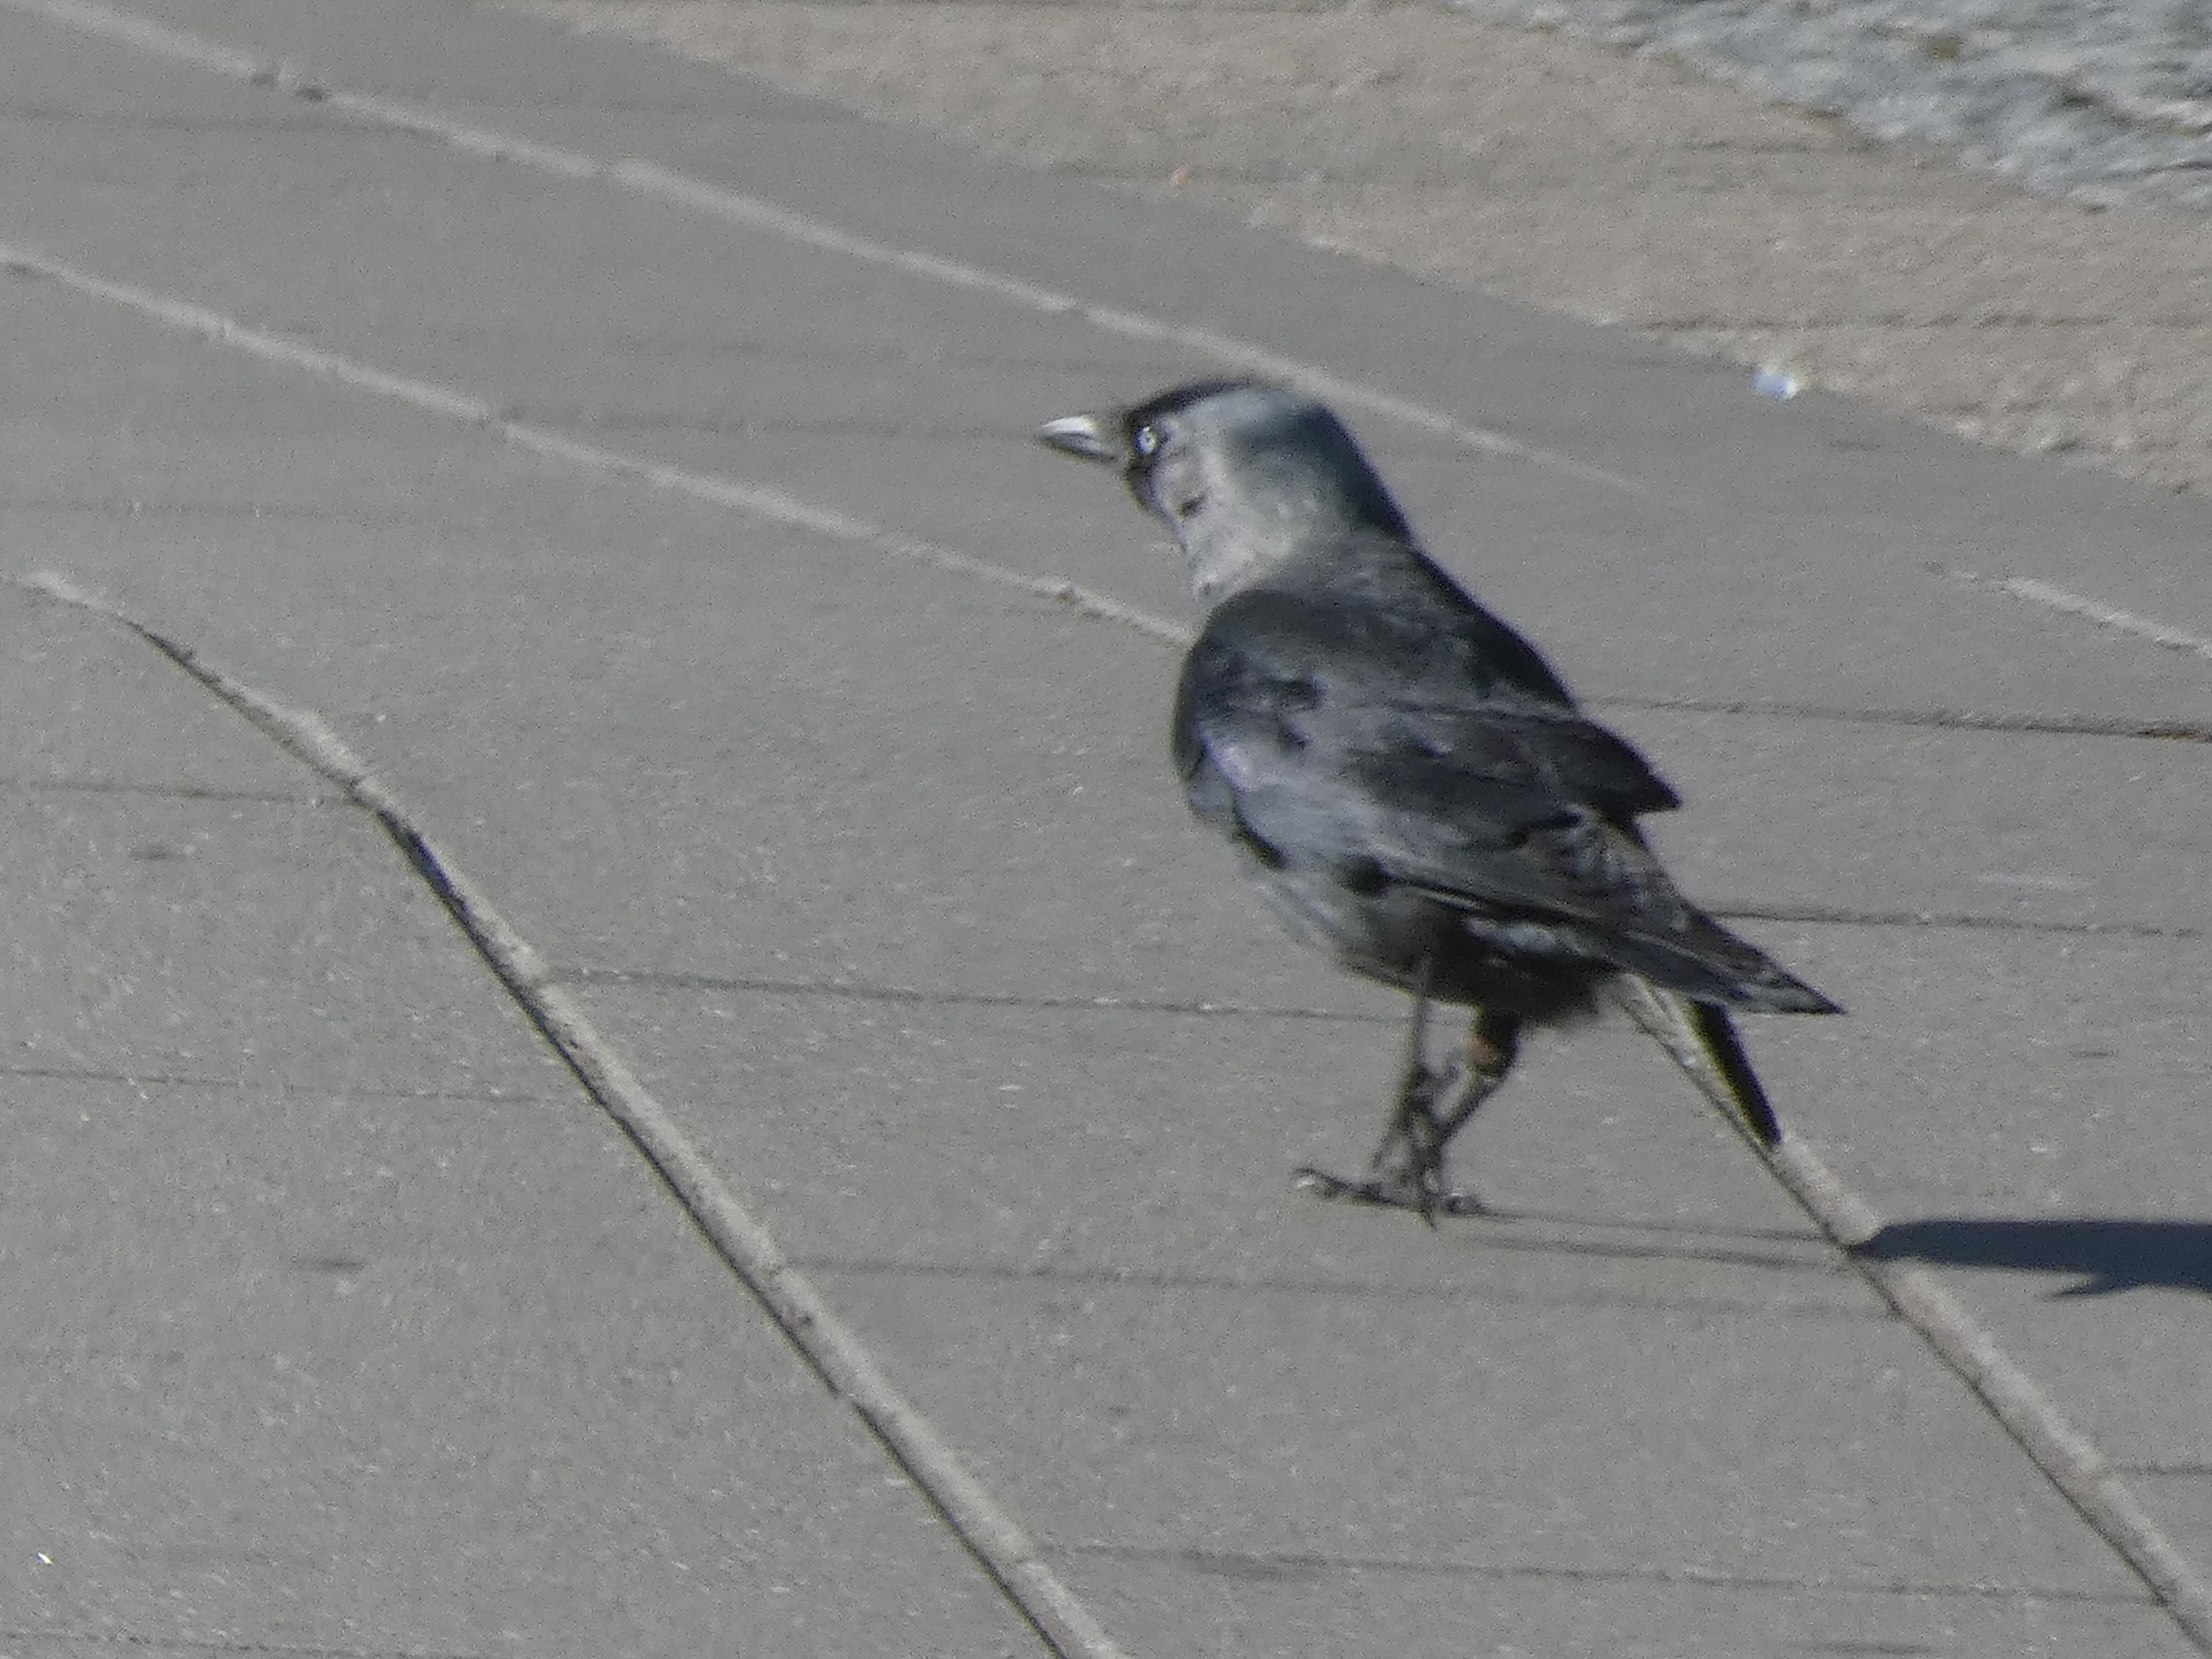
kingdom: Animalia
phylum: Chordata
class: Aves
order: Passeriformes
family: Corvidae
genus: Coloeus
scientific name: Coloeus monedula
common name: Allike
